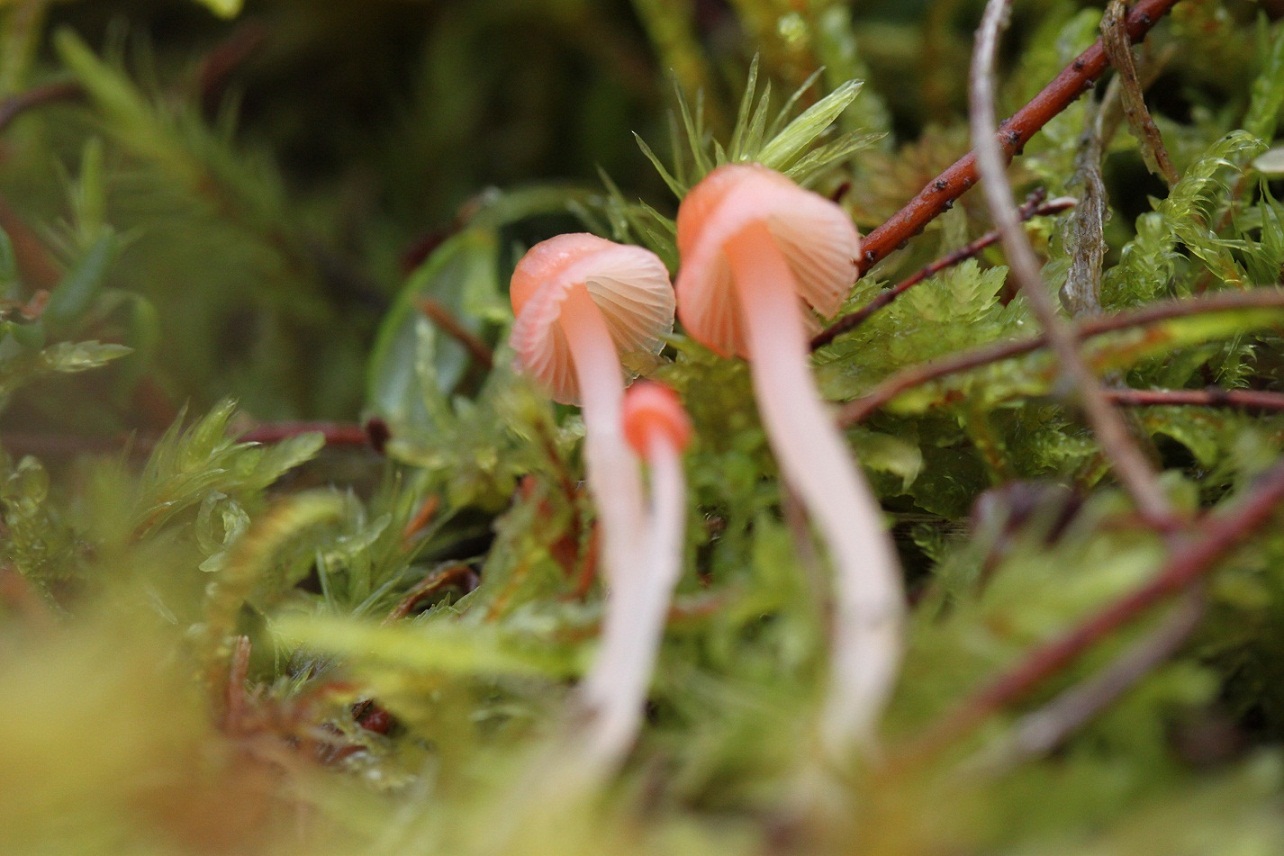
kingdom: Fungi
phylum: Basidiomycota
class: Agaricomycetes
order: Agaricales
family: Mycenaceae
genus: Atheniella
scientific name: Atheniella adonis
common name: rønnerød huesvamp
